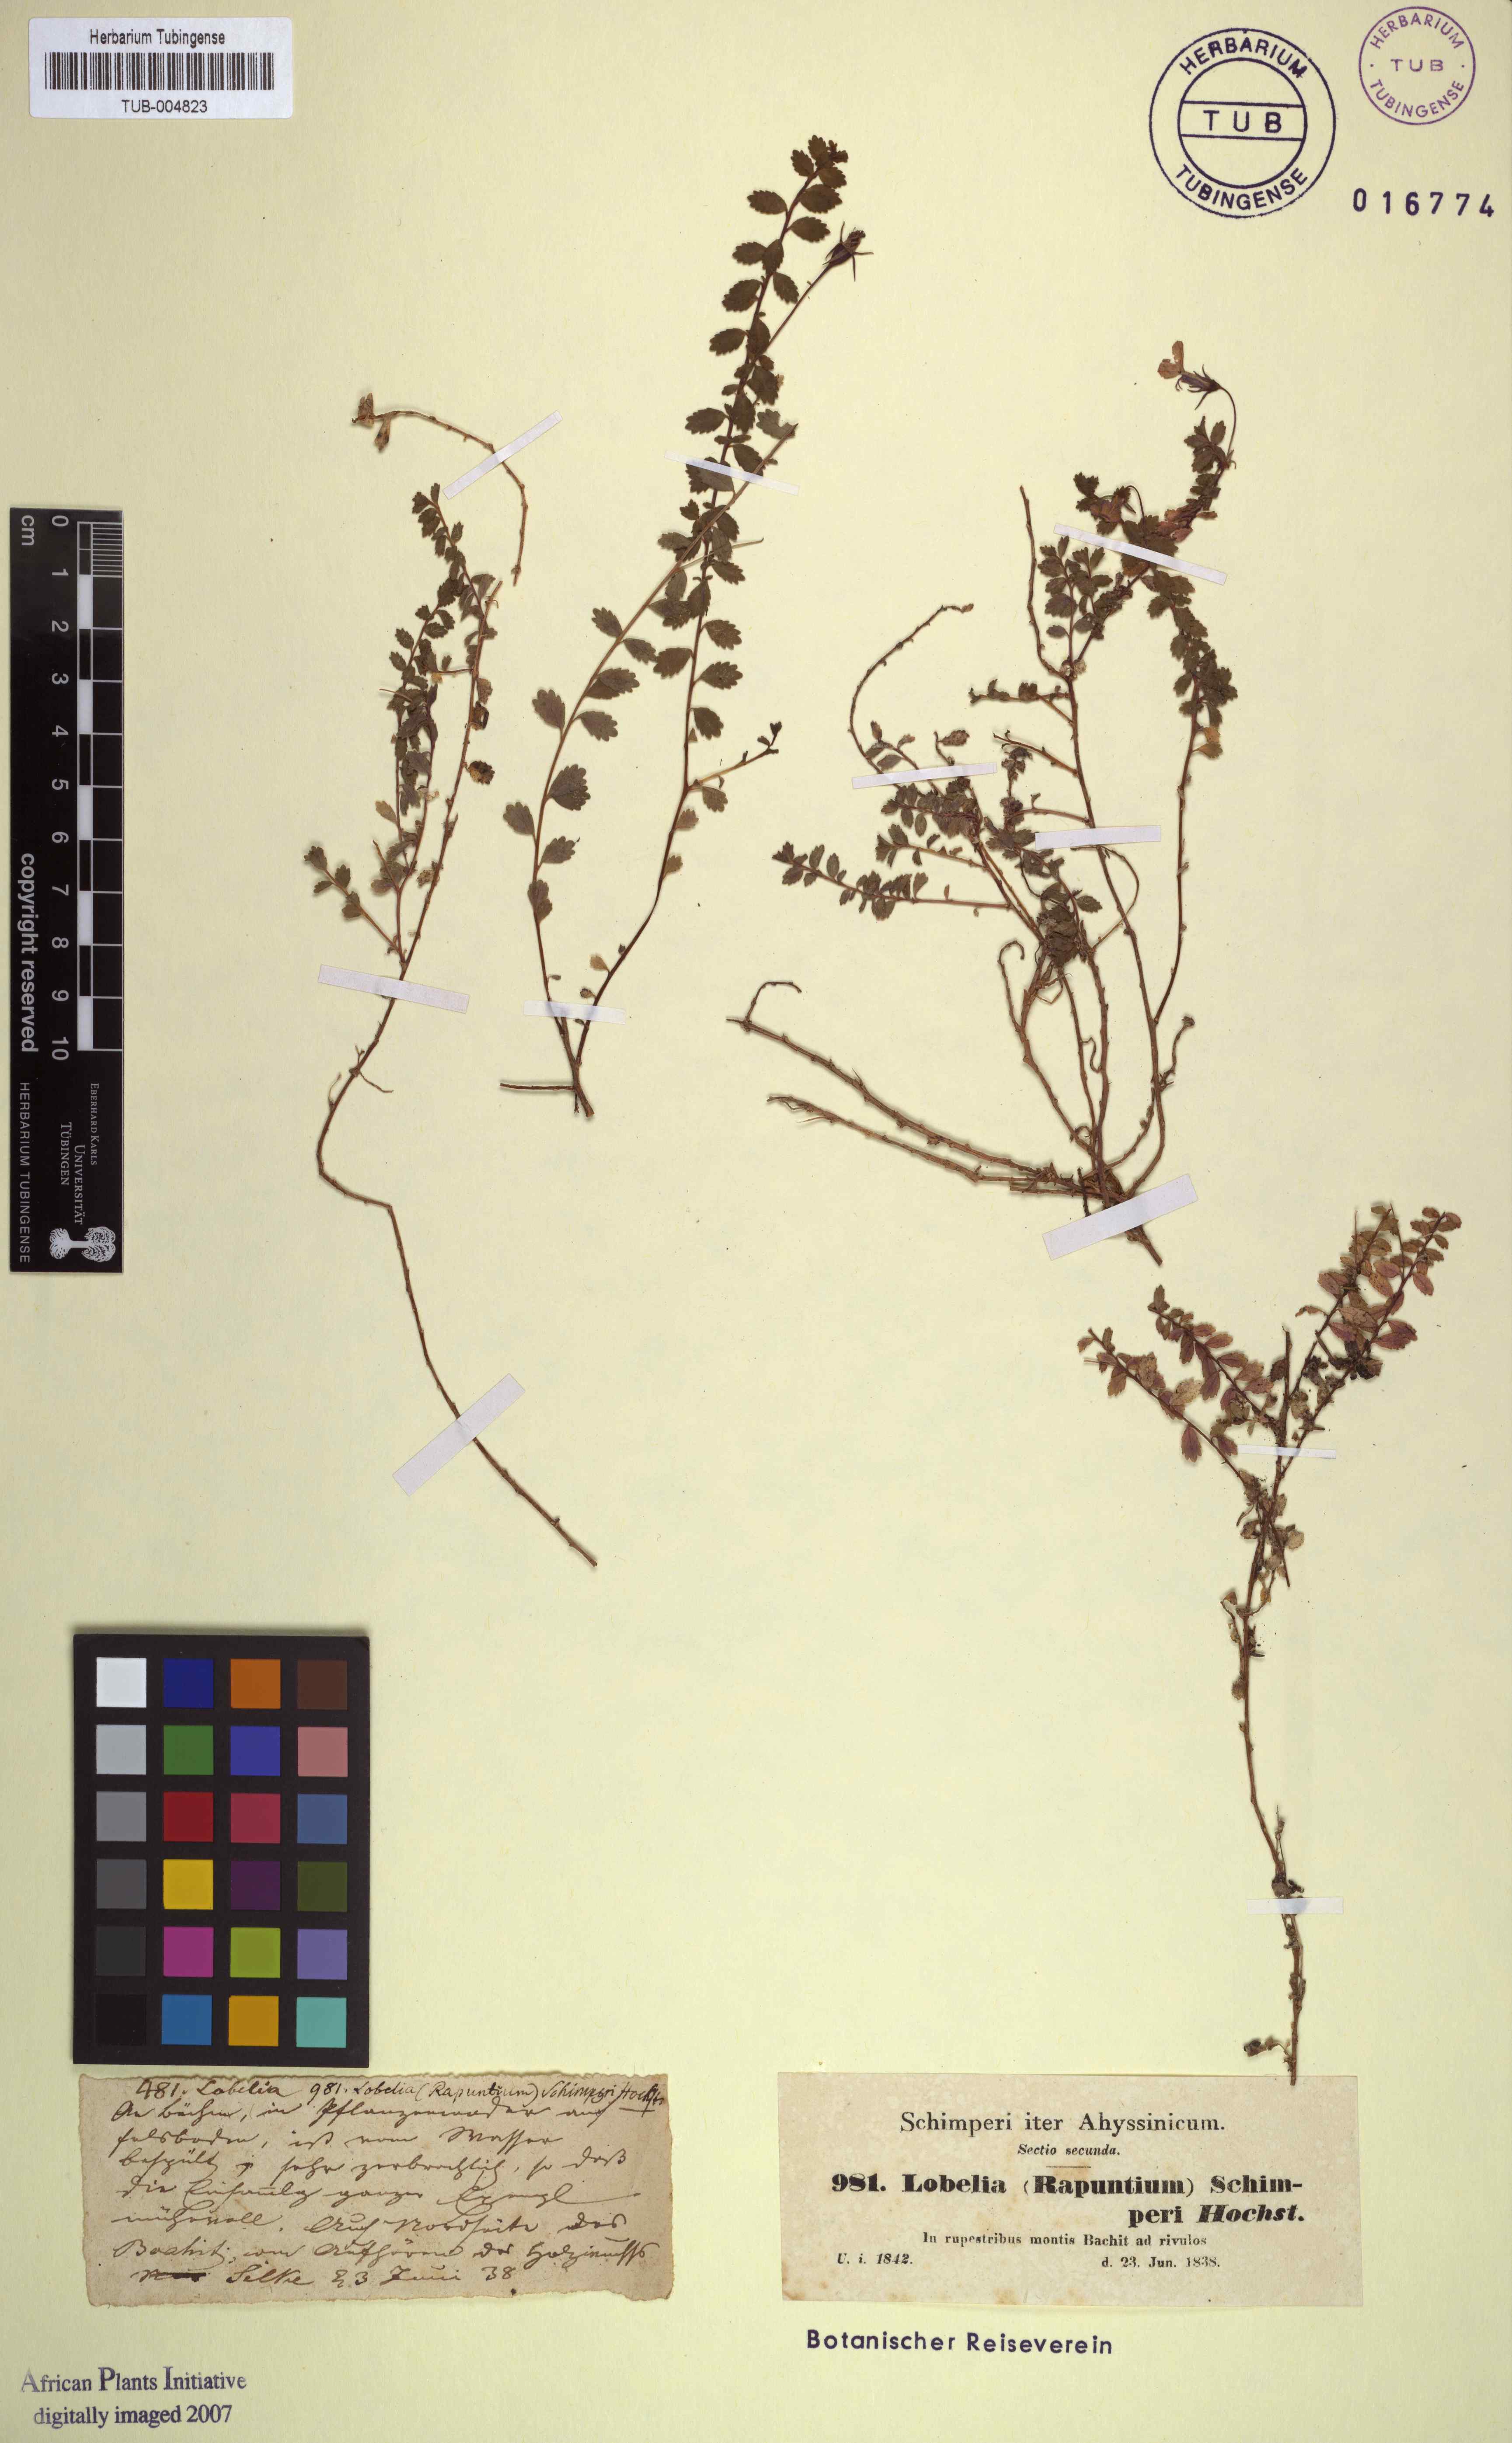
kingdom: Plantae
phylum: Tracheophyta
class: Magnoliopsida
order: Asterales
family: Campanulaceae
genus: Lobelia
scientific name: Lobelia schimperi
